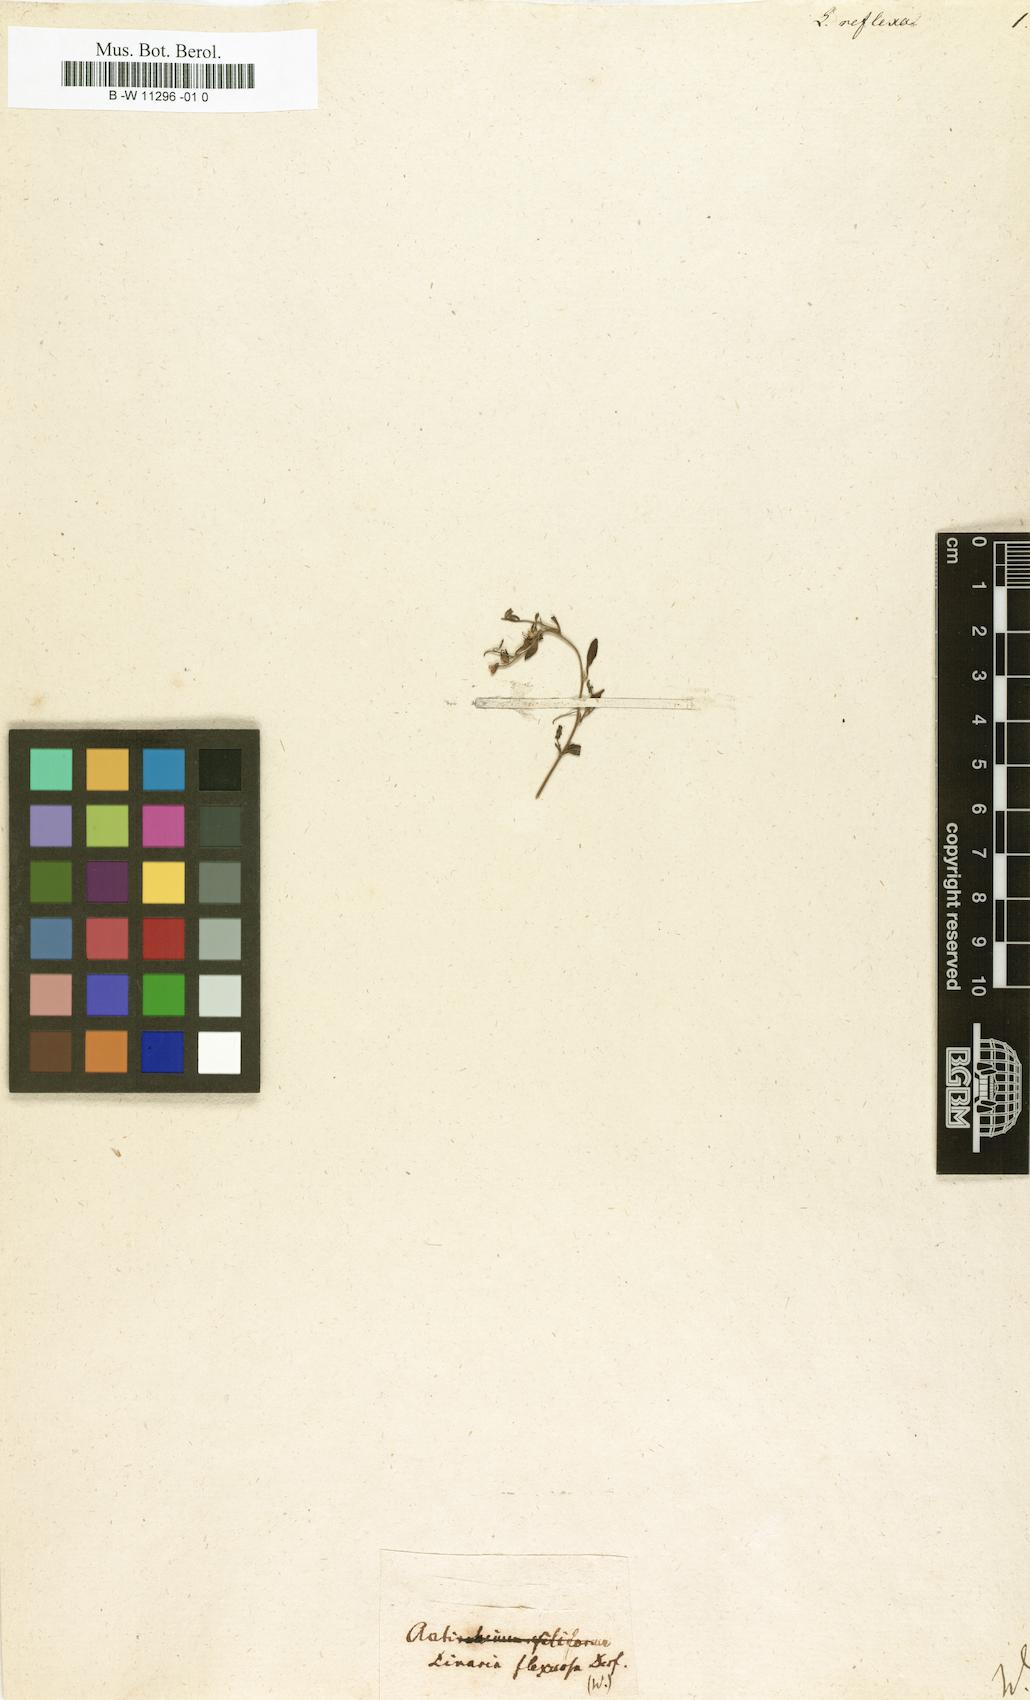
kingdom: Plantae
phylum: Tracheophyta
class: Magnoliopsida
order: Lamiales
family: Plantaginaceae
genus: Linaria
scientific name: Linaria reflexa
